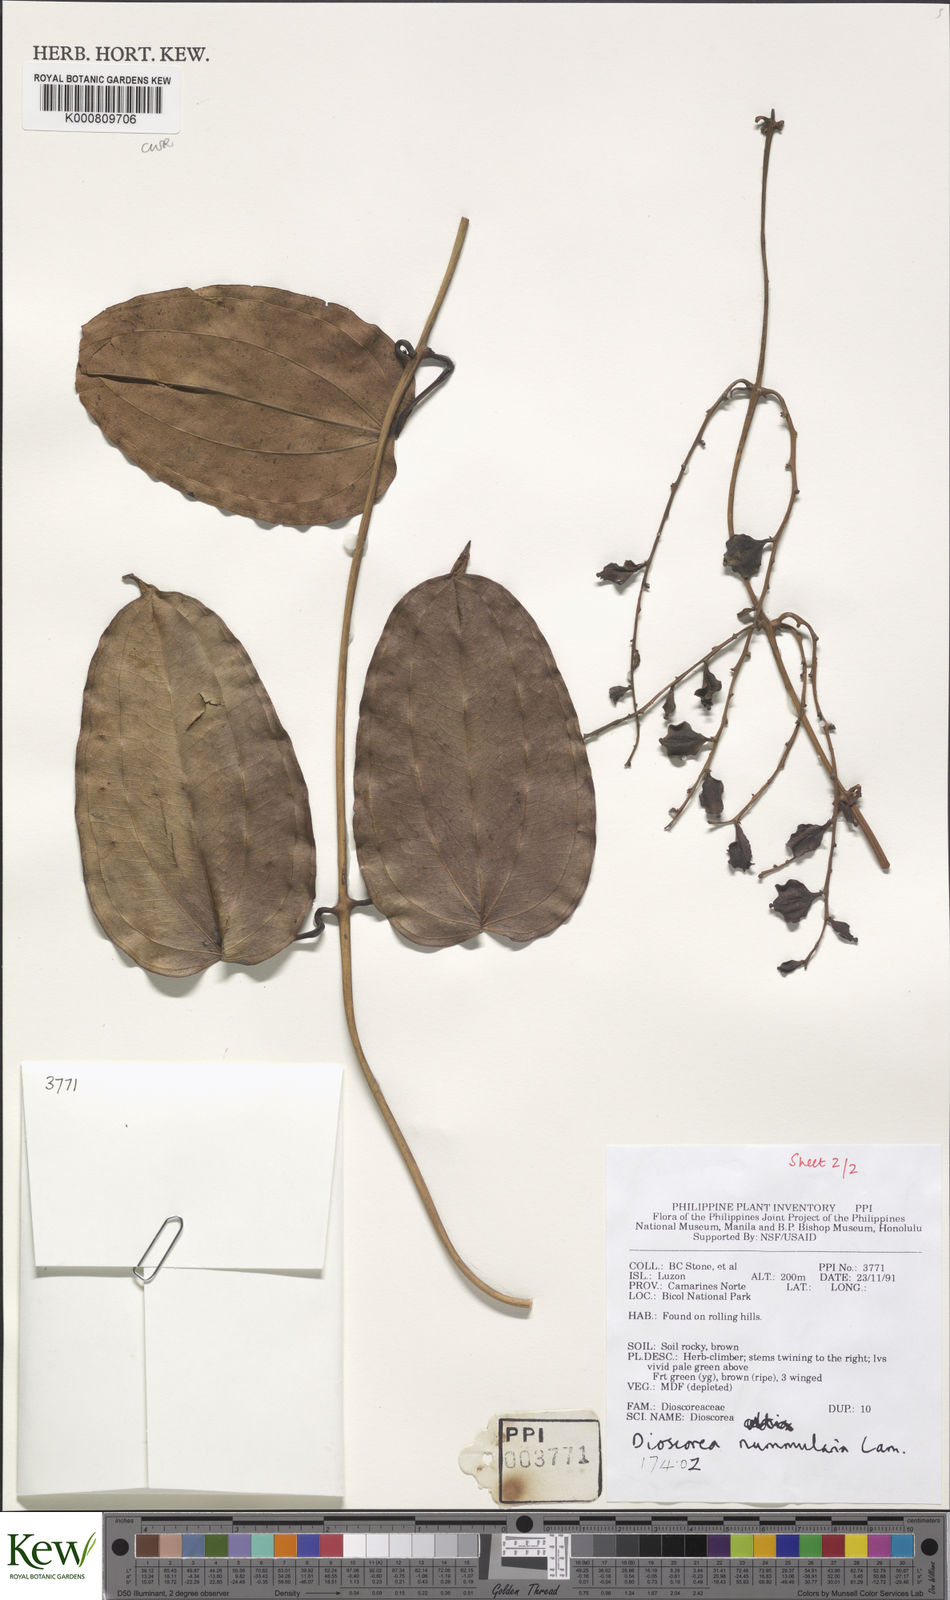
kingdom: Plantae
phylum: Tracheophyta
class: Liliopsida
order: Dioscoreales
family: Dioscoreaceae
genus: Dioscorea
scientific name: Dioscorea nummularia
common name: Pacific yam
